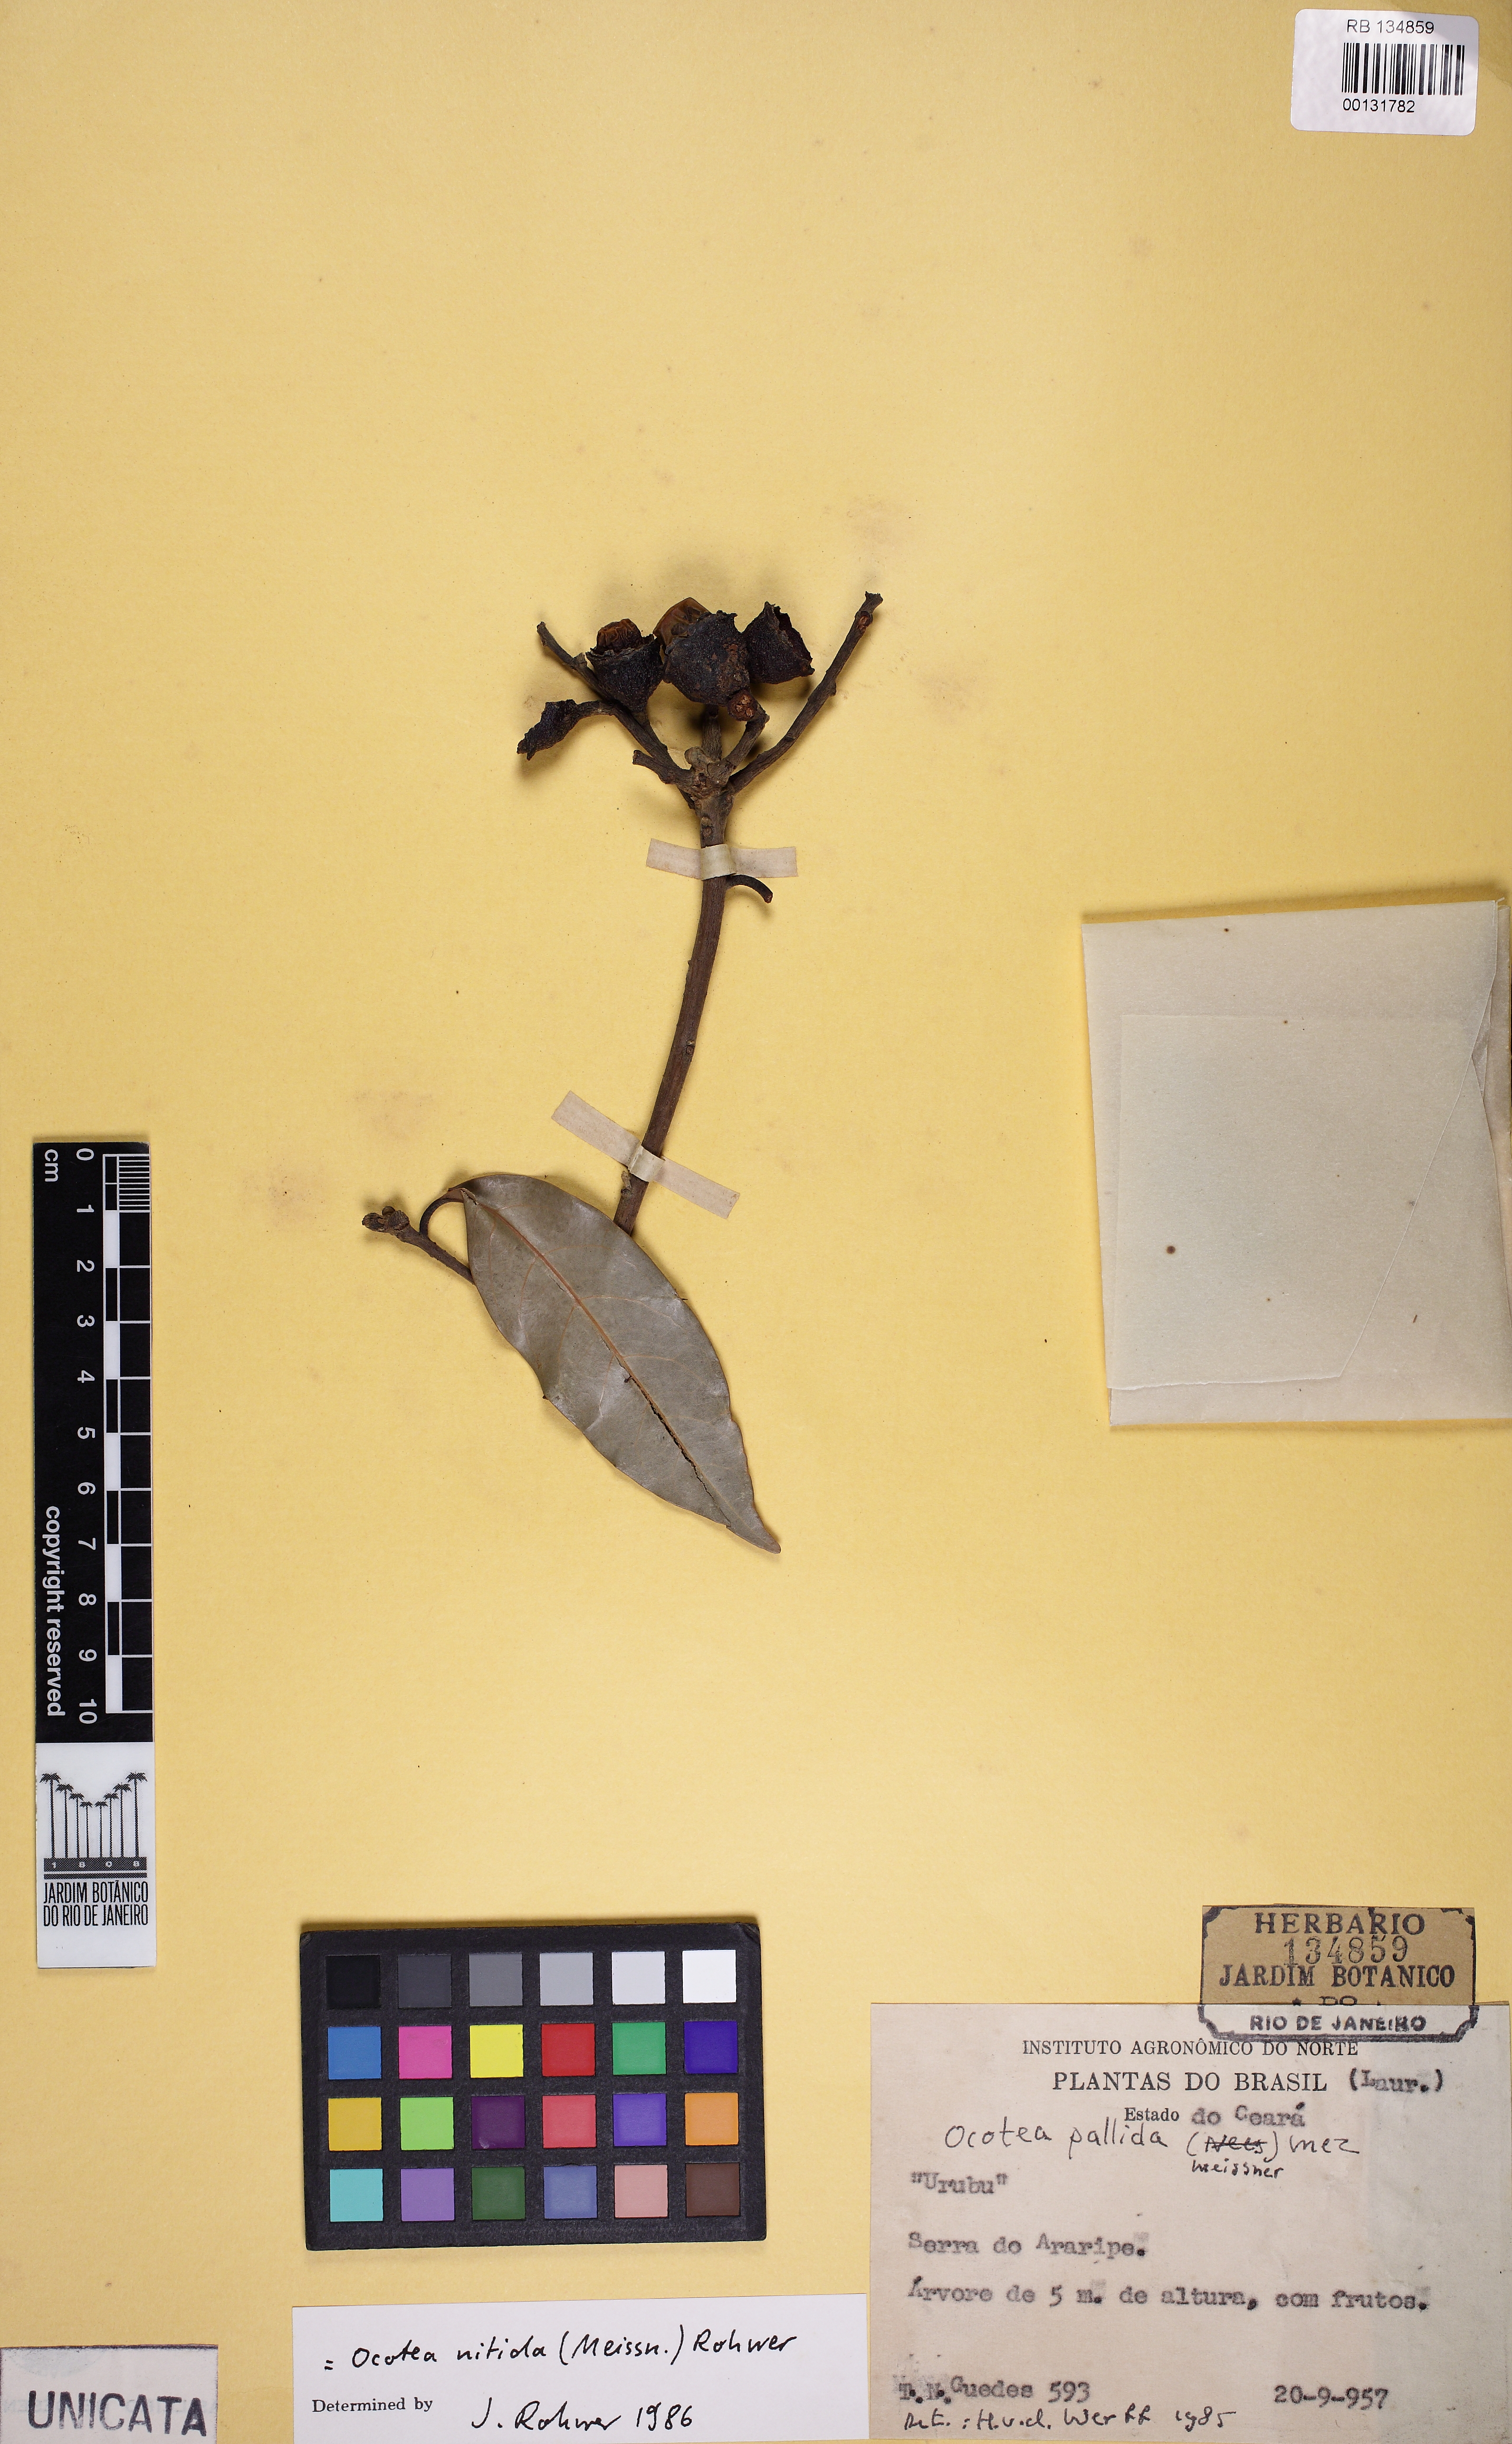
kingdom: Plantae
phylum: Tracheophyta
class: Magnoliopsida
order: Laurales
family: Lauraceae
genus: Ocotea
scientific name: Ocotea nitida
